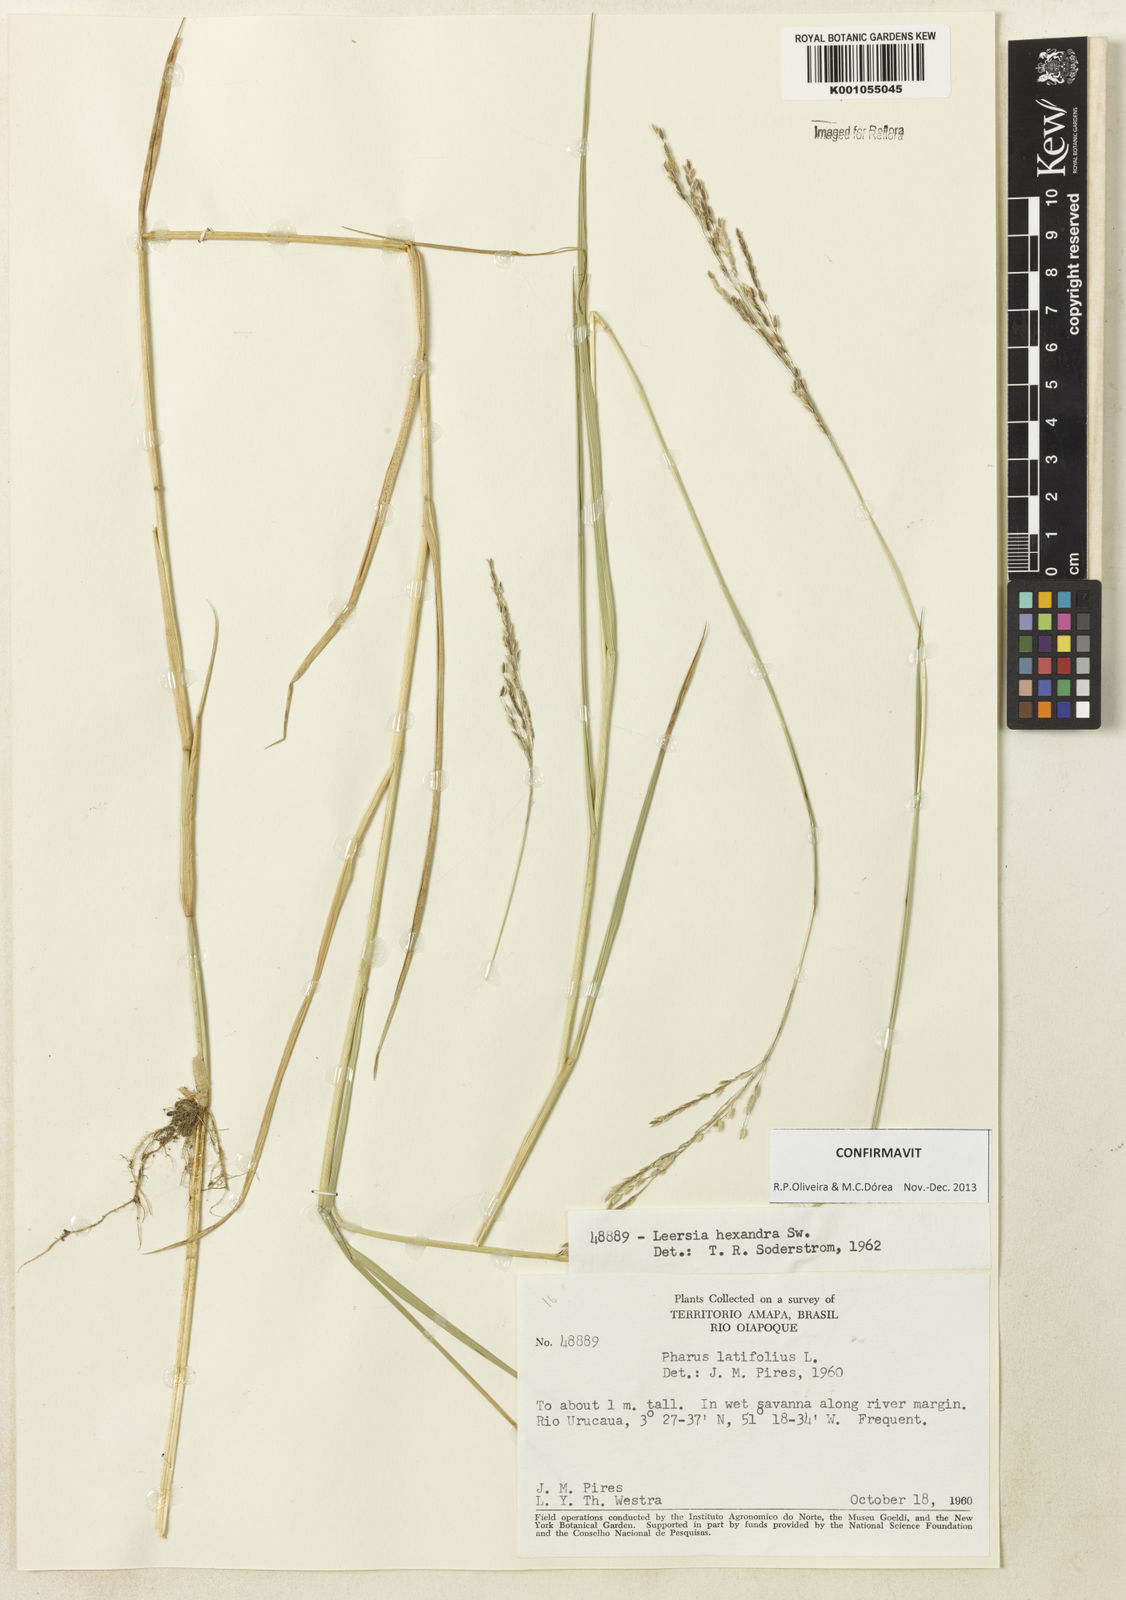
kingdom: Plantae
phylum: Tracheophyta
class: Liliopsida
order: Poales
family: Poaceae
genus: Leersia
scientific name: Leersia hexandra
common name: Southern cut grass
